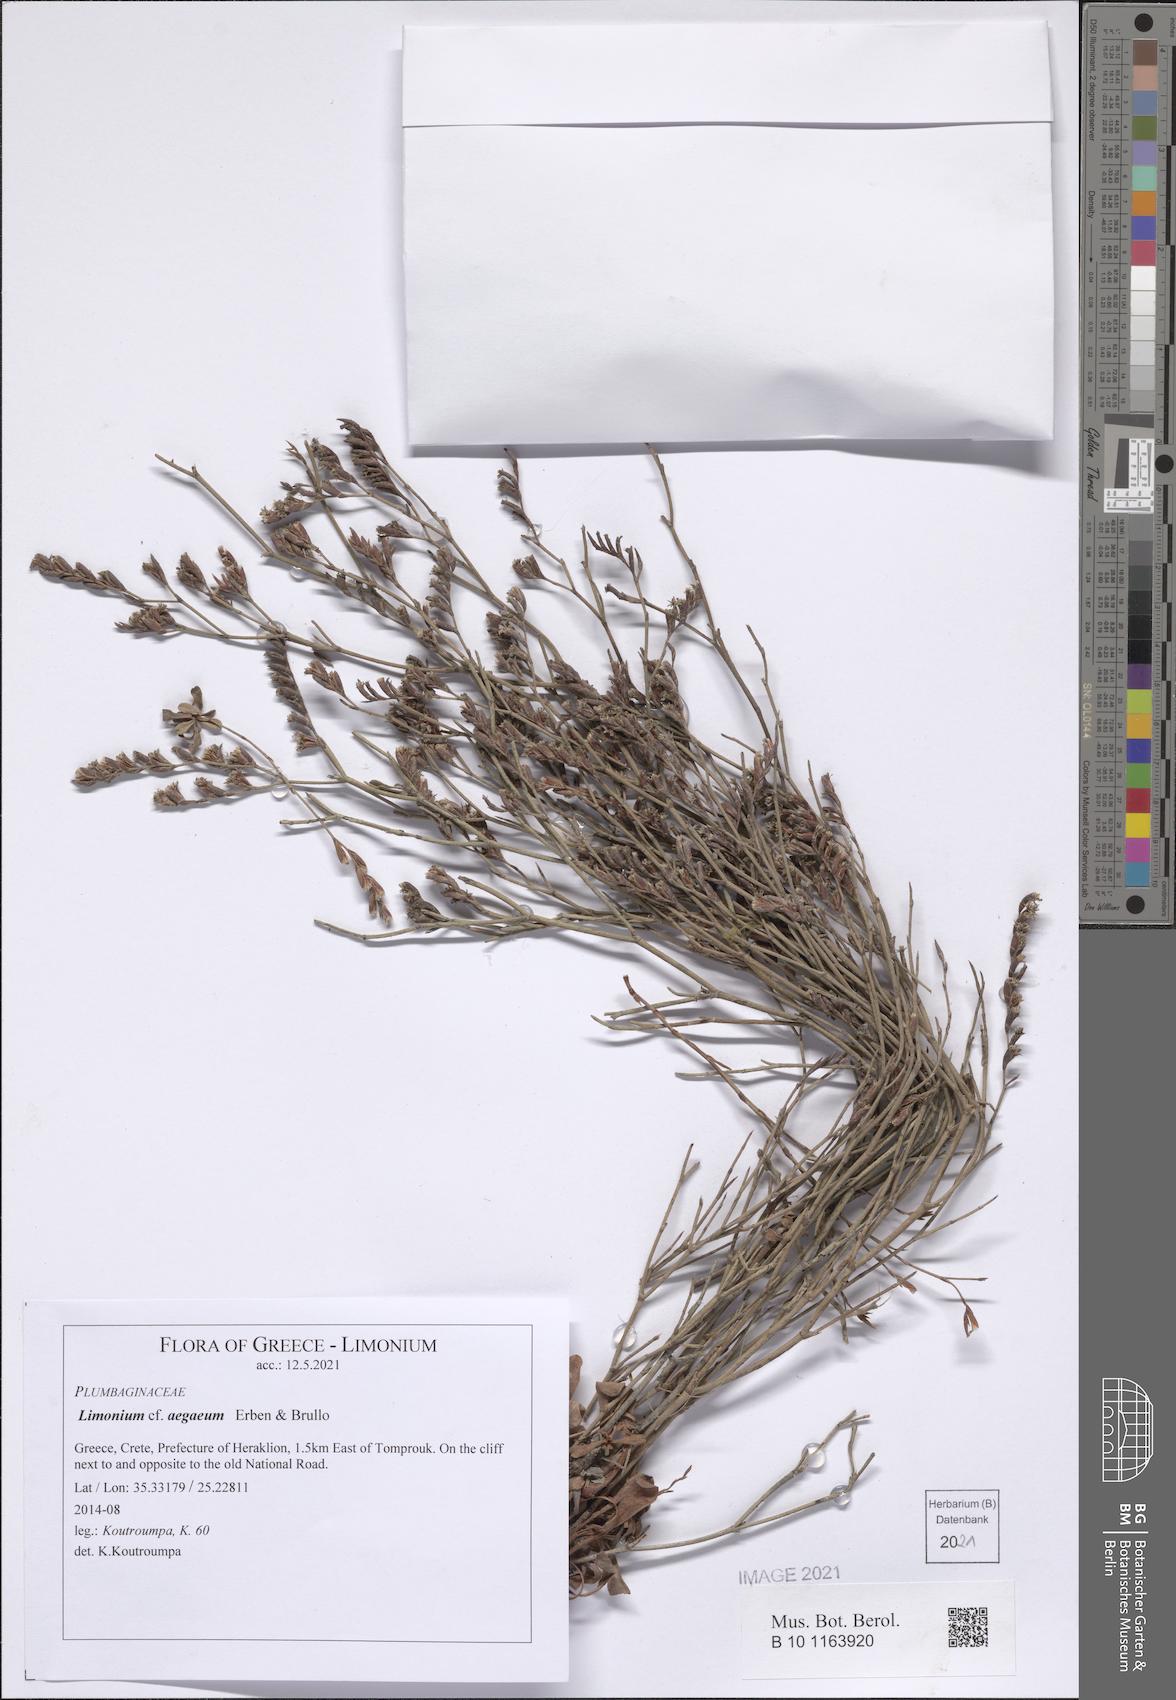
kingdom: Plantae
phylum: Tracheophyta
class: Magnoliopsida
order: Caryophyllales
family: Plumbaginaceae
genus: Limonium
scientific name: Limonium aegaeum
